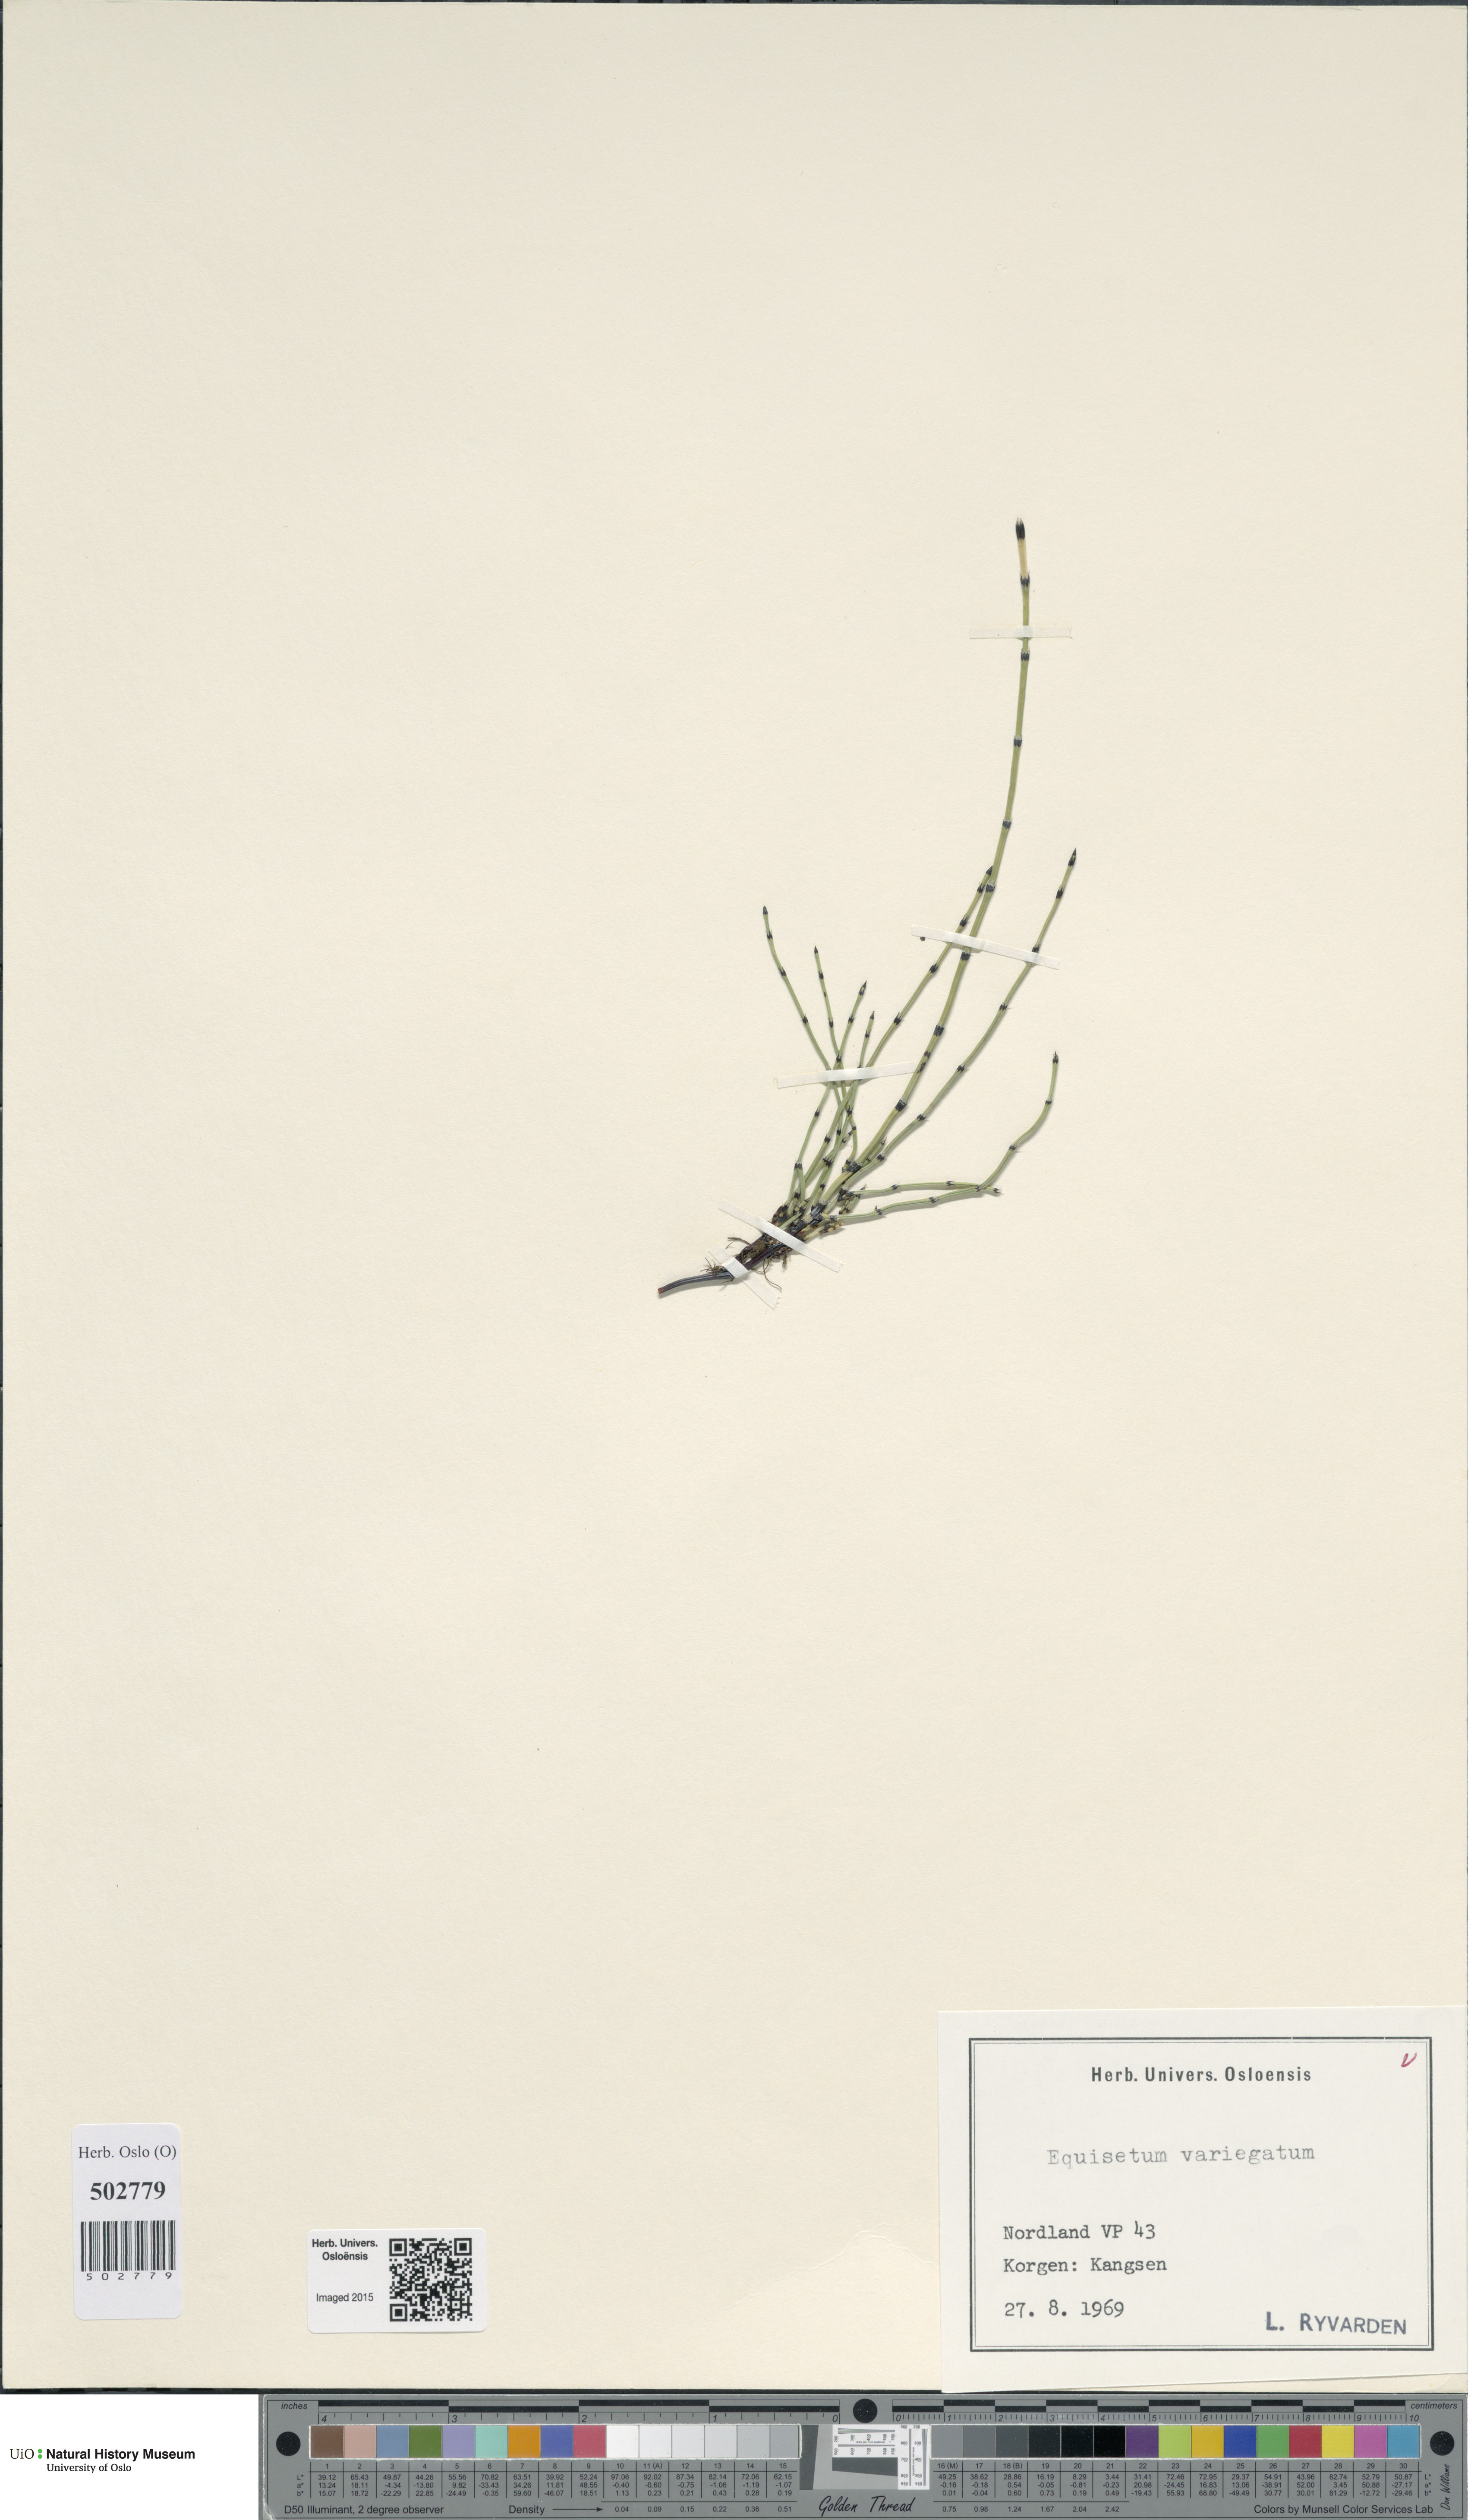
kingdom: Plantae
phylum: Tracheophyta
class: Polypodiopsida
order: Equisetales
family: Equisetaceae
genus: Equisetum
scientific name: Equisetum variegatum
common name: Variegated horsetail
